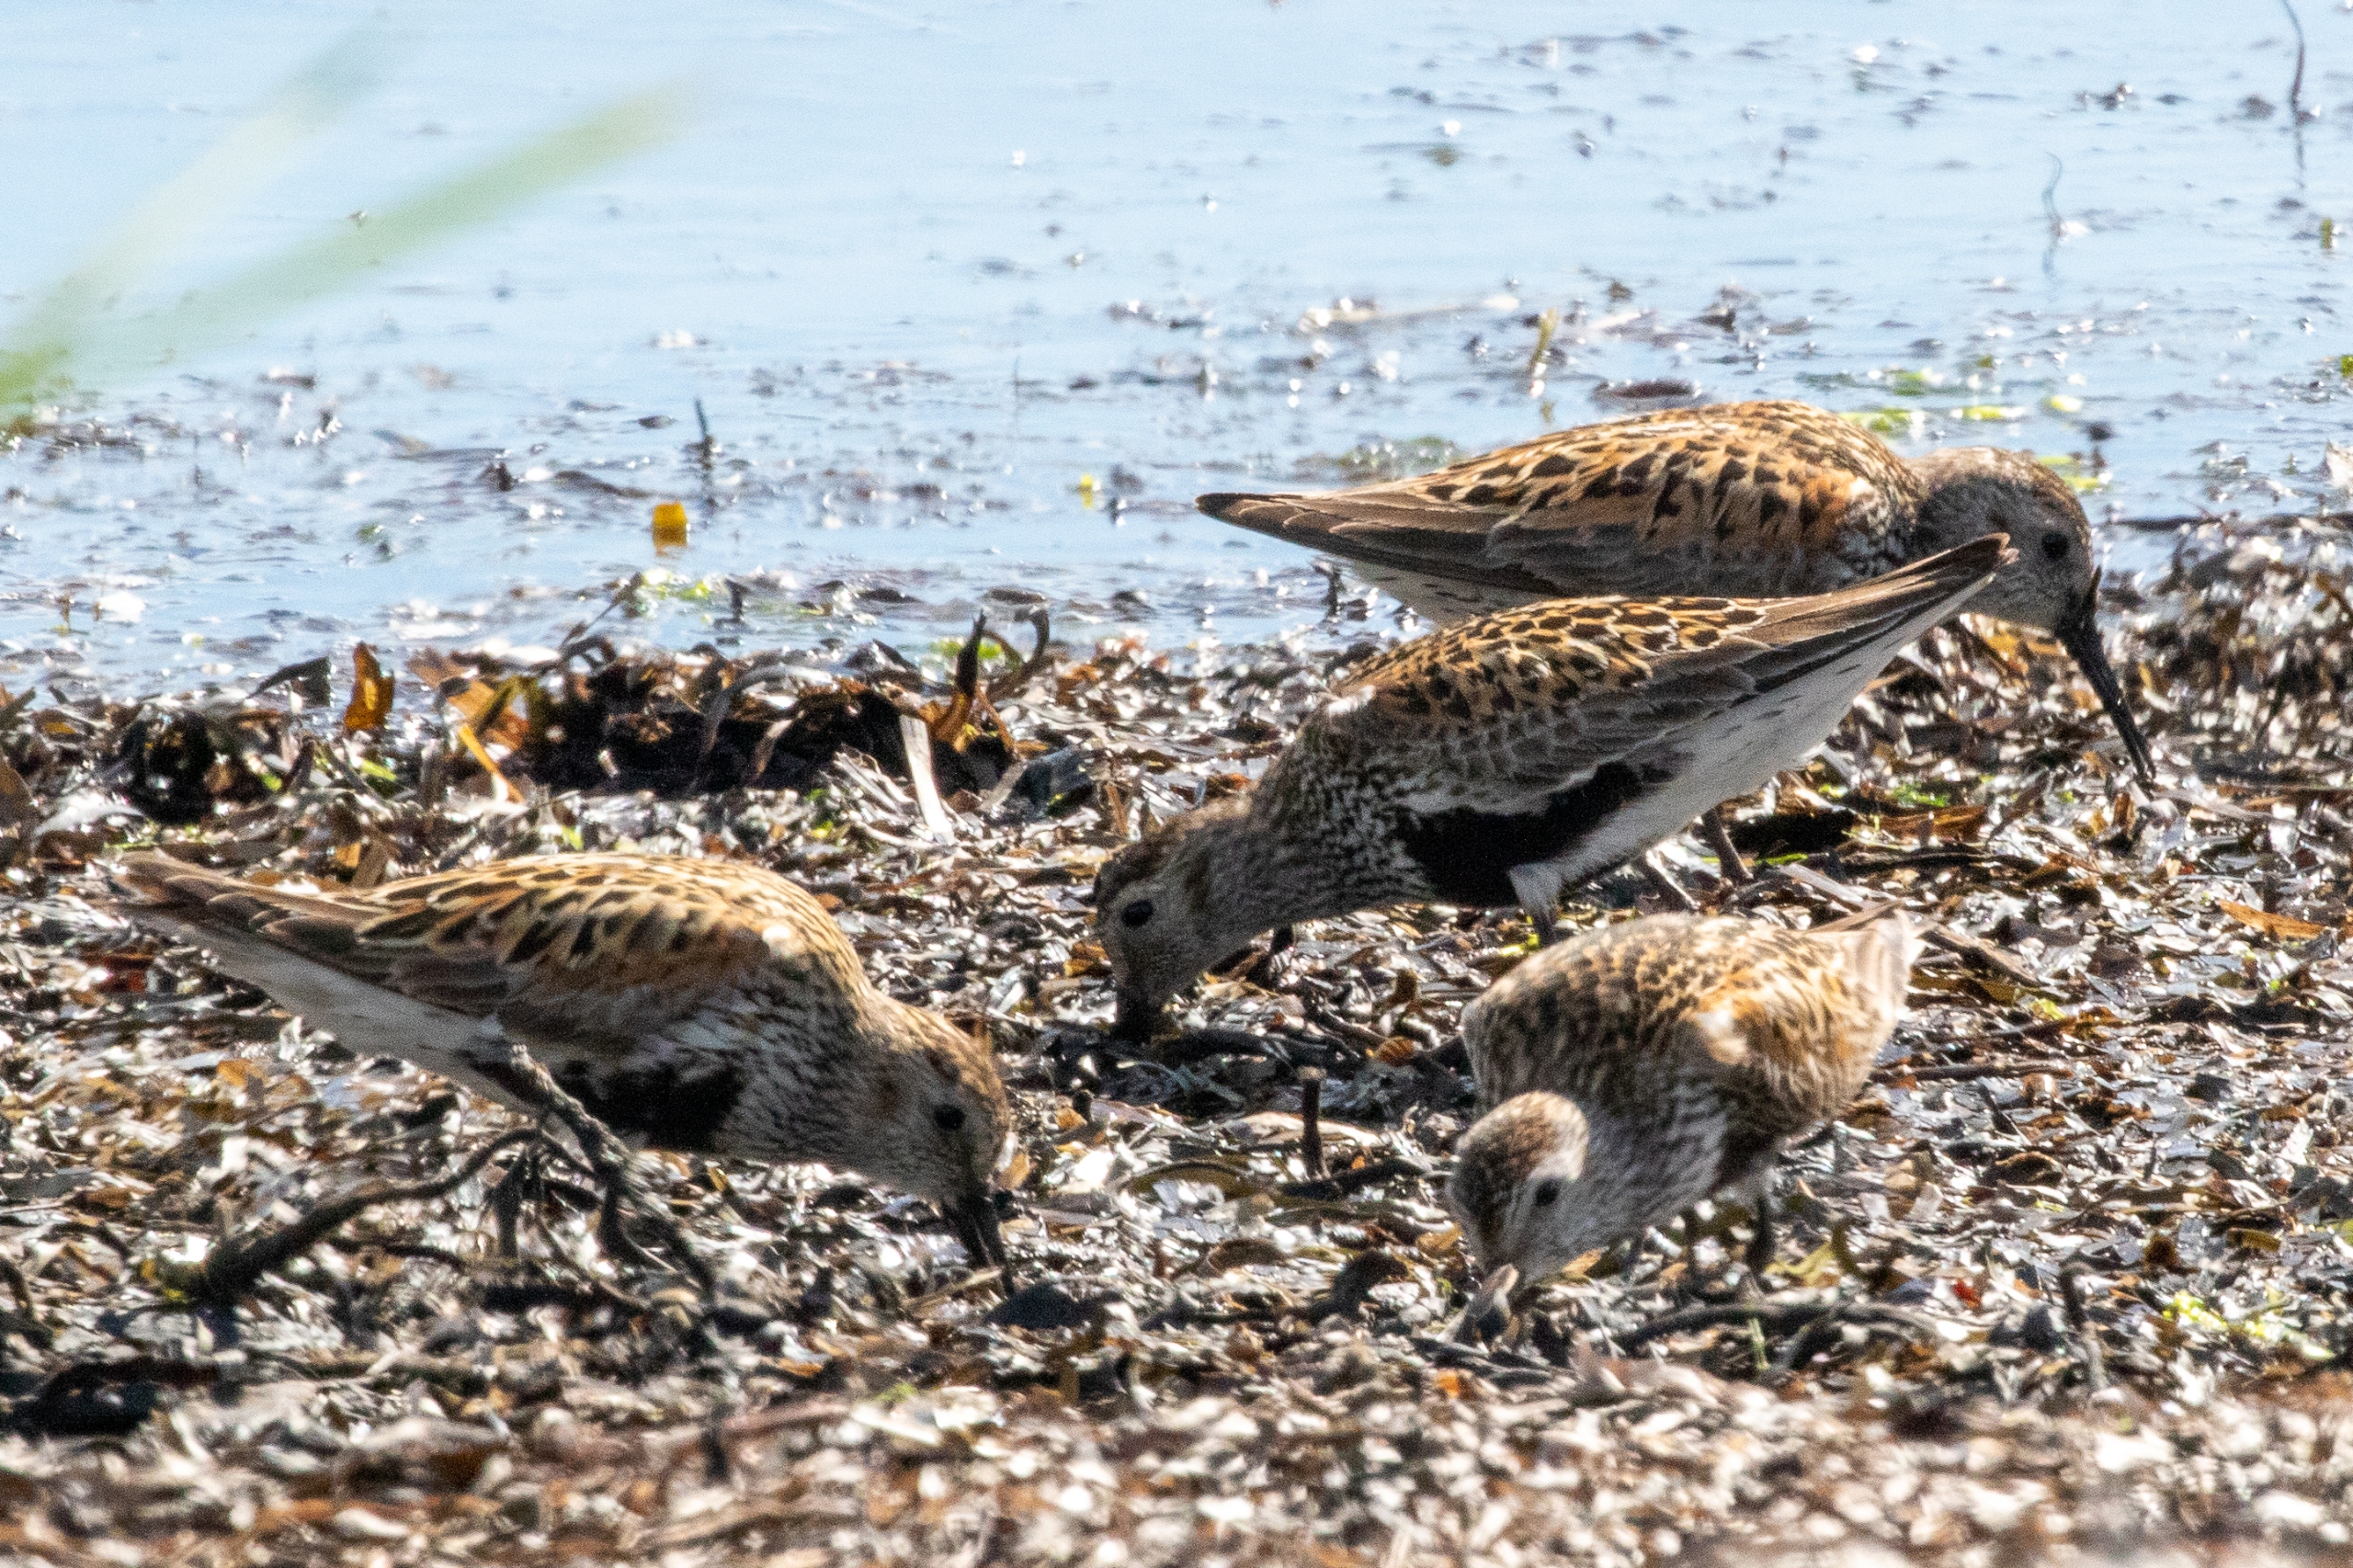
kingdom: Animalia
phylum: Chordata
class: Aves
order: Charadriiformes
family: Scolopacidae
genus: Calidris
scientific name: Calidris alpina
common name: Almindelig ryle
